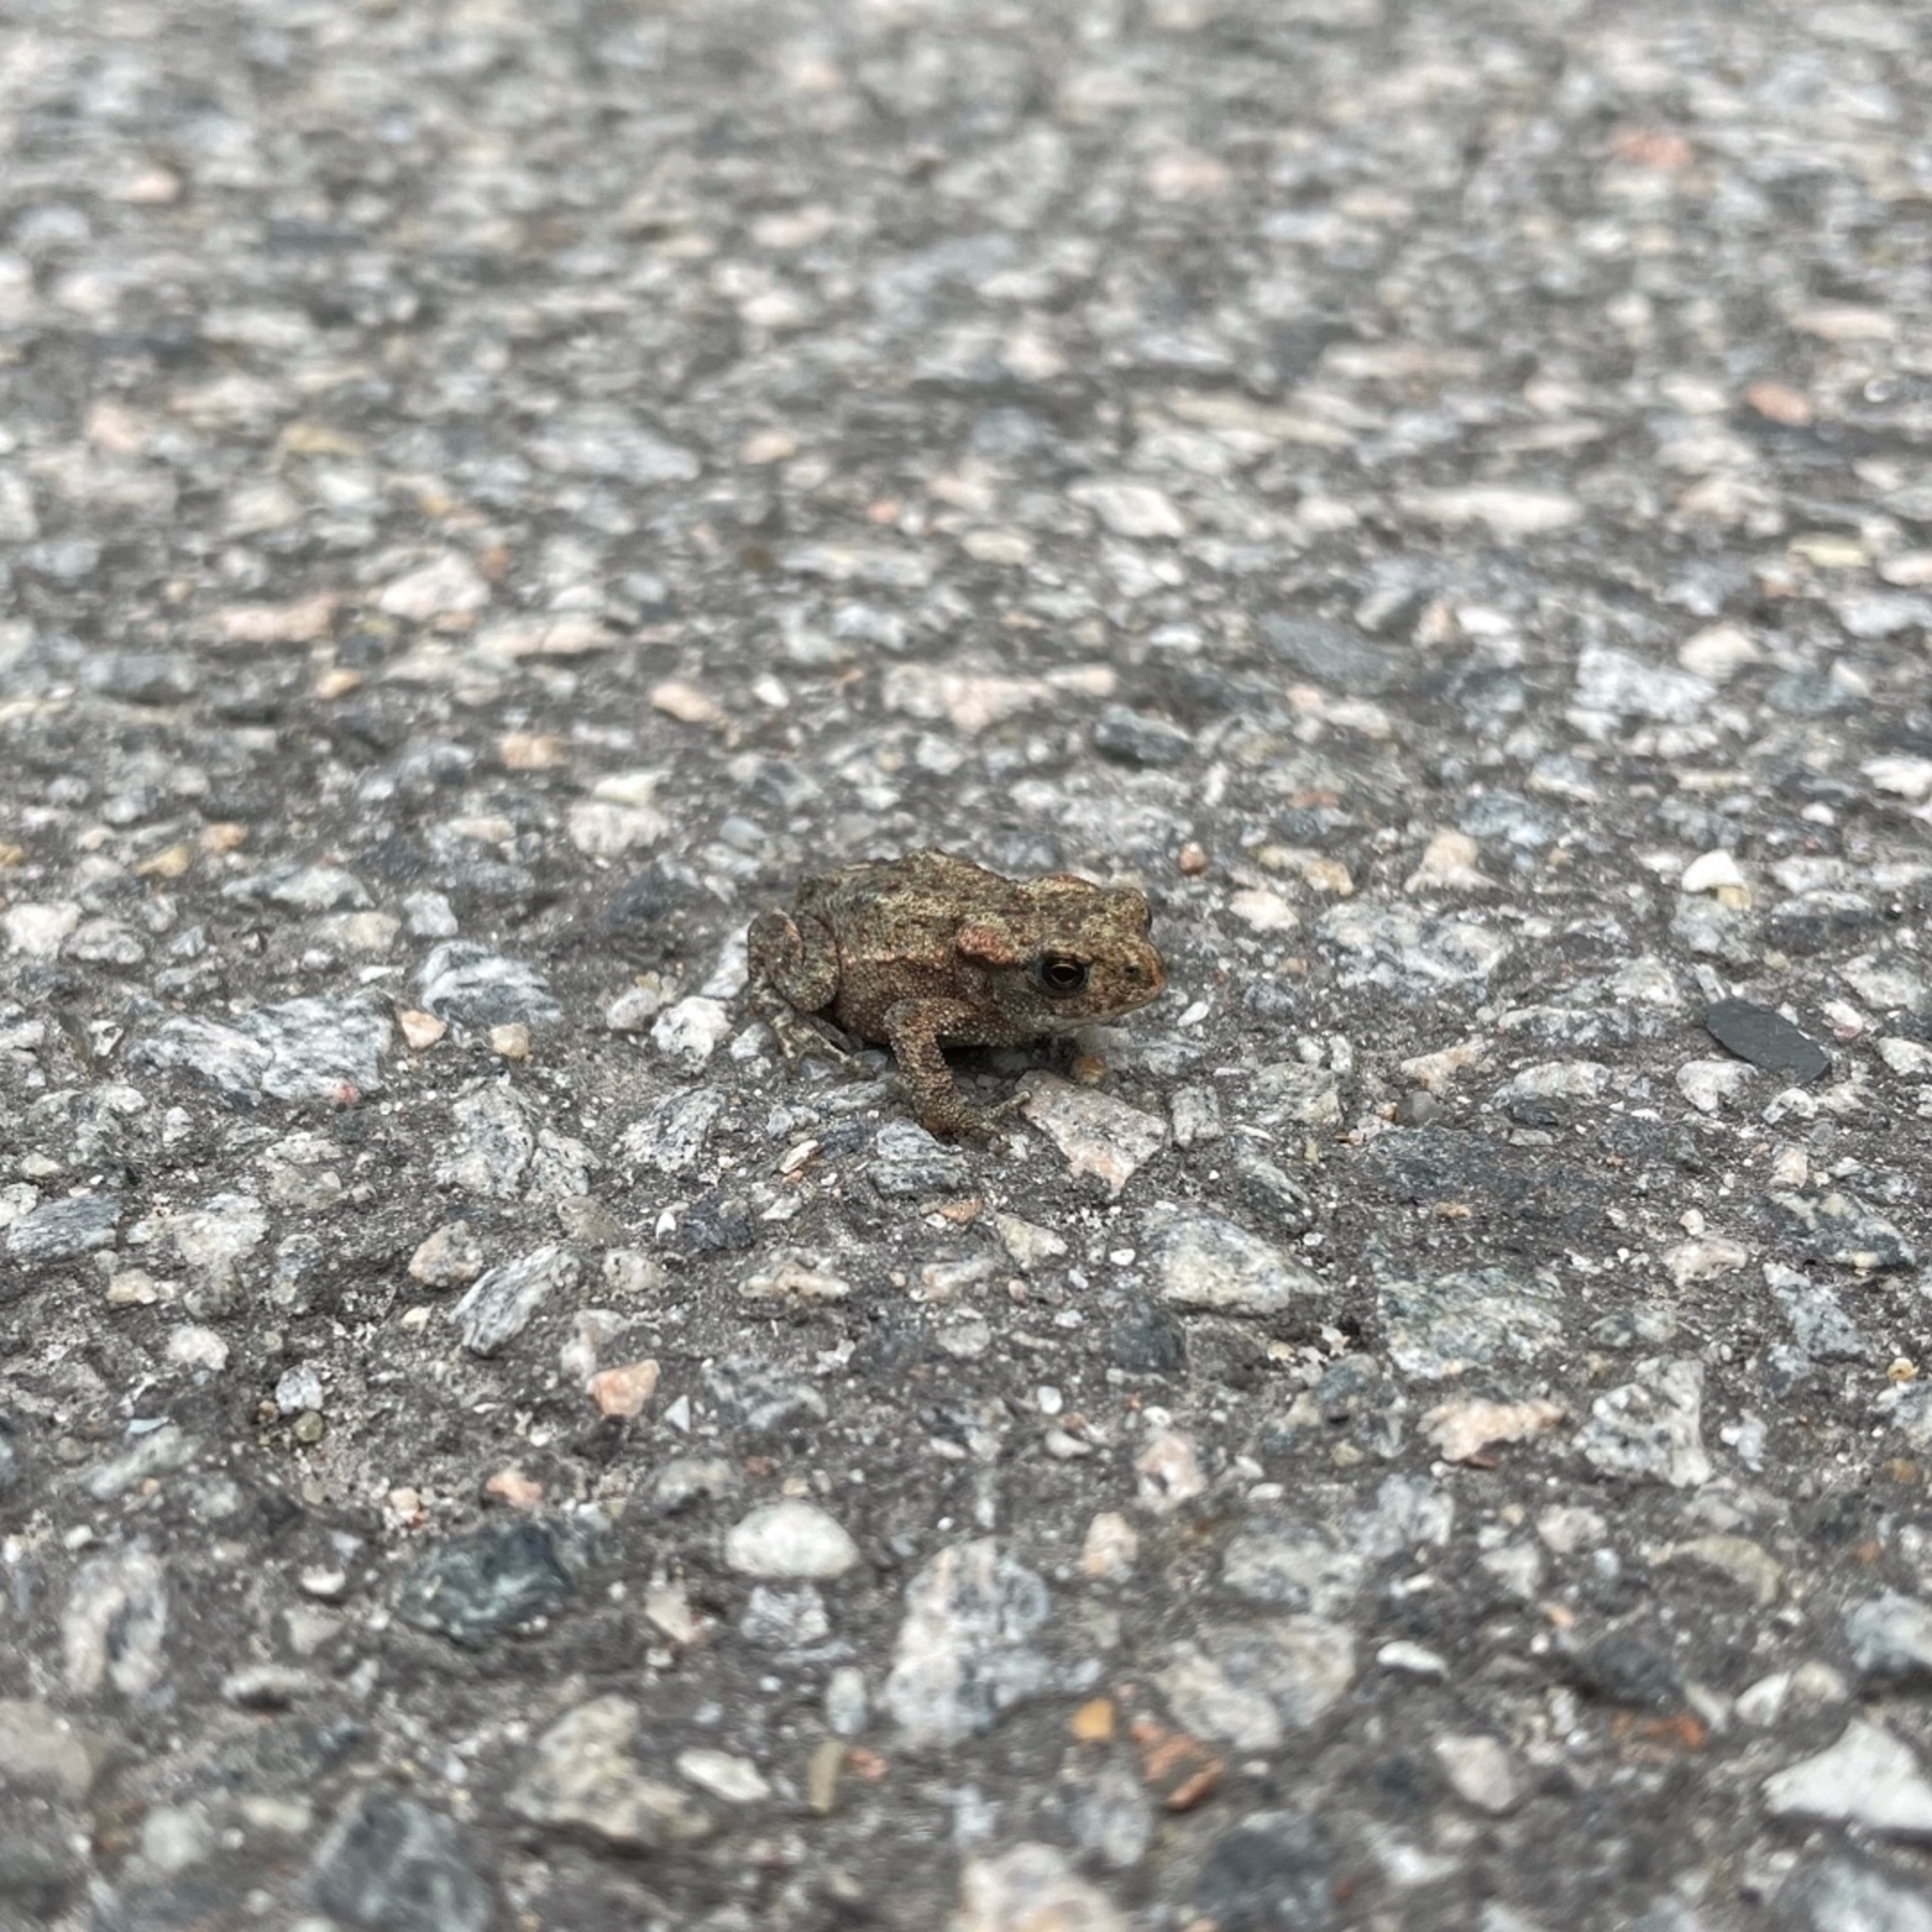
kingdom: Animalia
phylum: Chordata
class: Amphibia
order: Anura
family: Bufonidae
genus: Bufo
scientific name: Bufo bufo
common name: Skrubtudse
